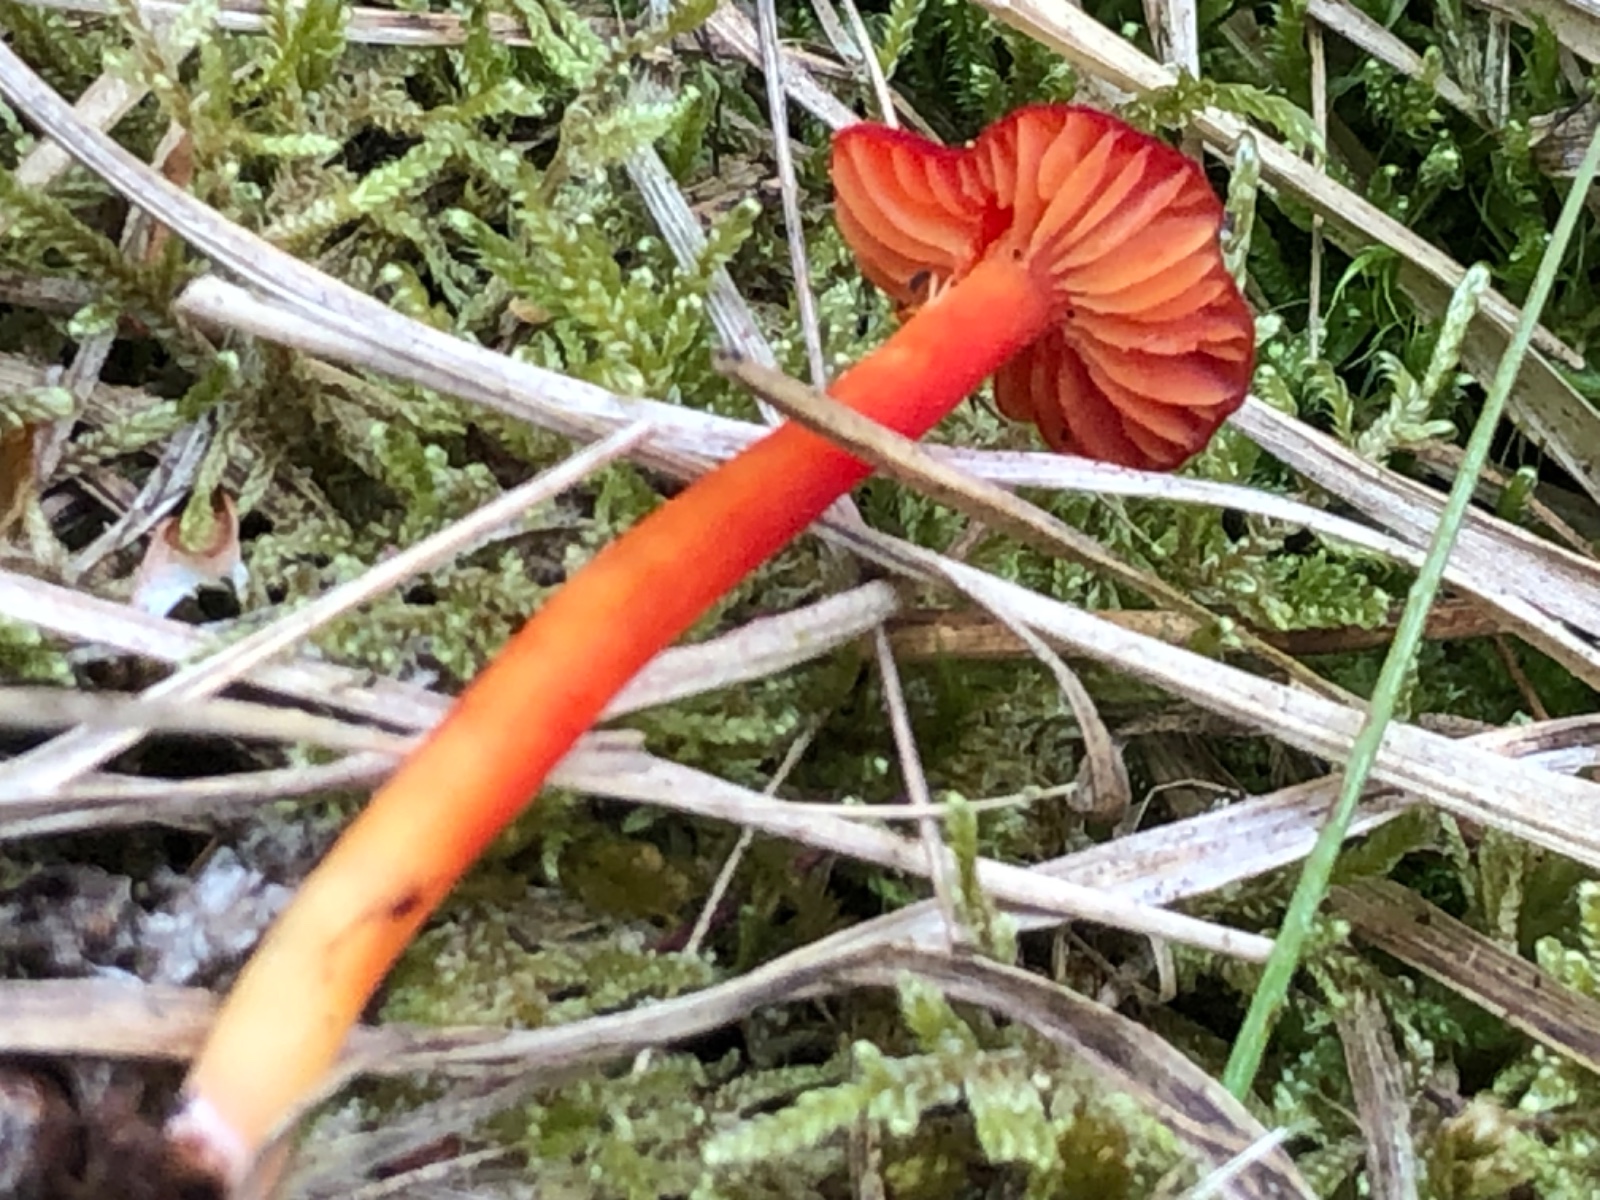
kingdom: Fungi
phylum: Basidiomycota
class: Agaricomycetes
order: Agaricales
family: Hygrophoraceae
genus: Hygrocybe
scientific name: Hygrocybe helobia
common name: hvidløgs-vokshat
